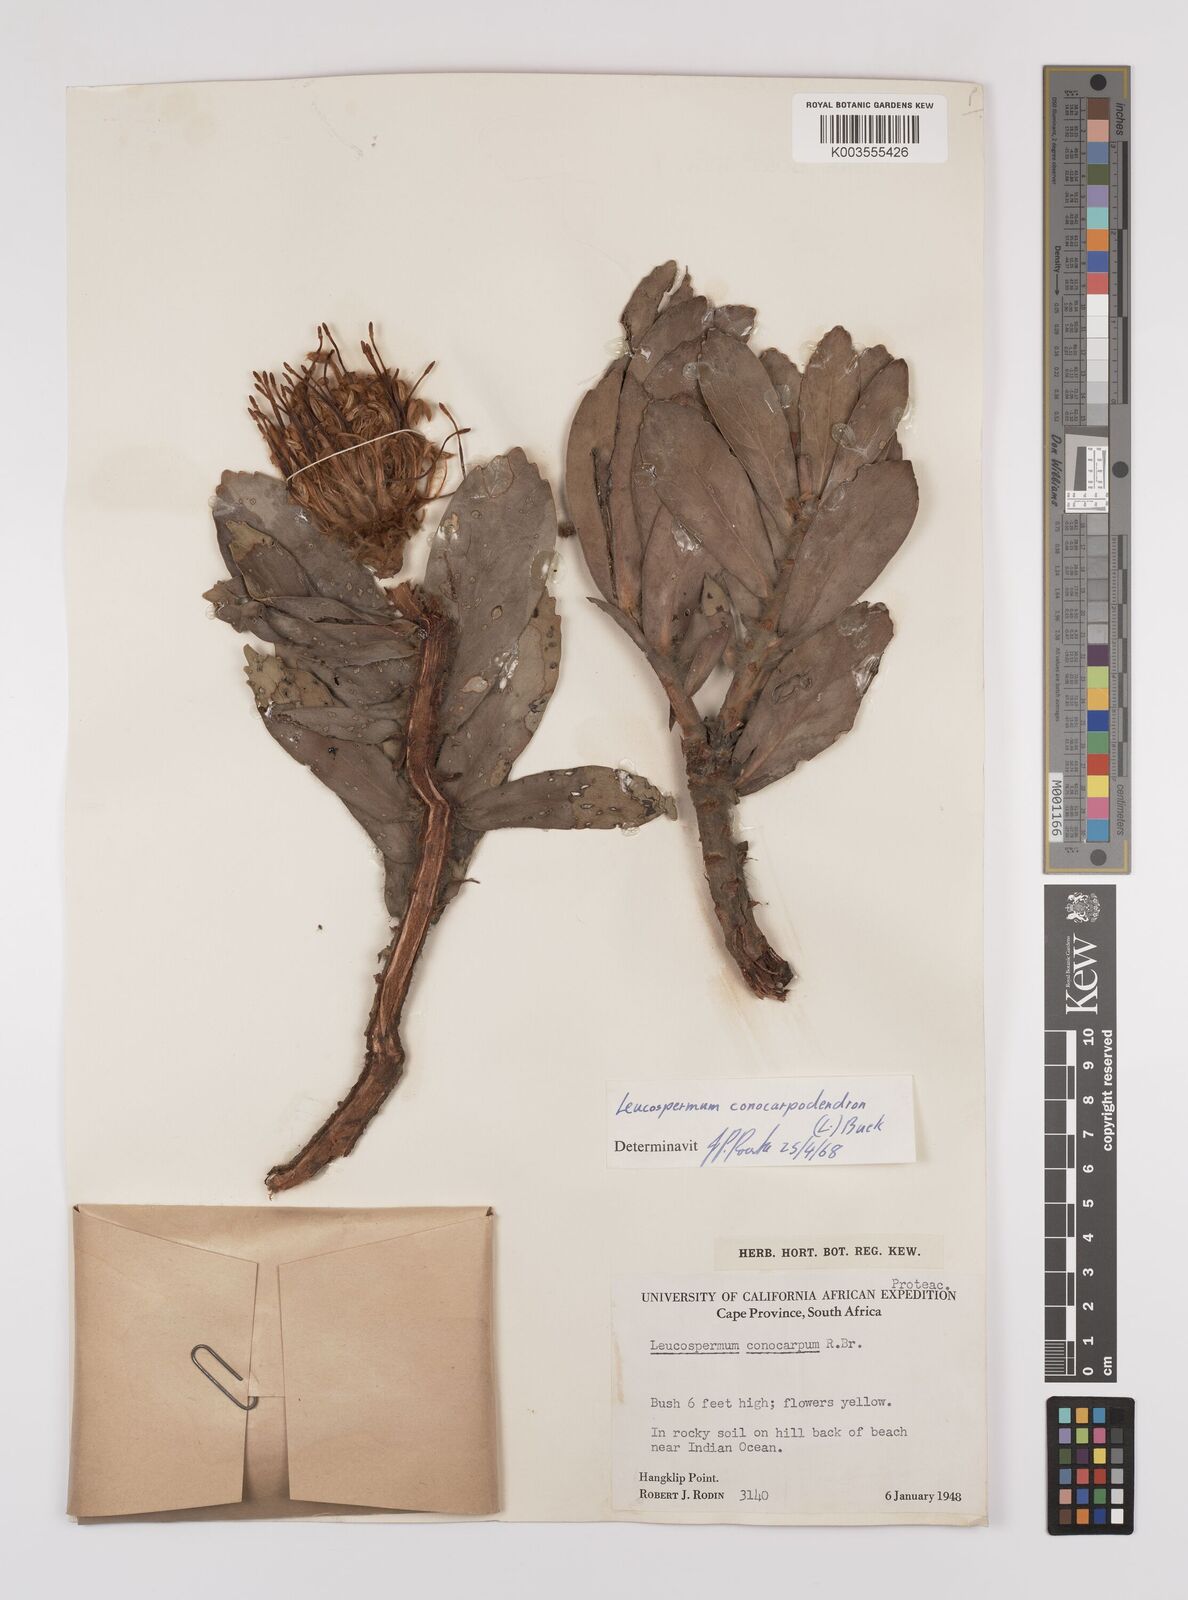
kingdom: Plantae
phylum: Tracheophyta
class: Magnoliopsida
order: Proteales
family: Proteaceae
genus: Leucospermum
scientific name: Leucospermum conocarpodendron
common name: Tree pincushion
